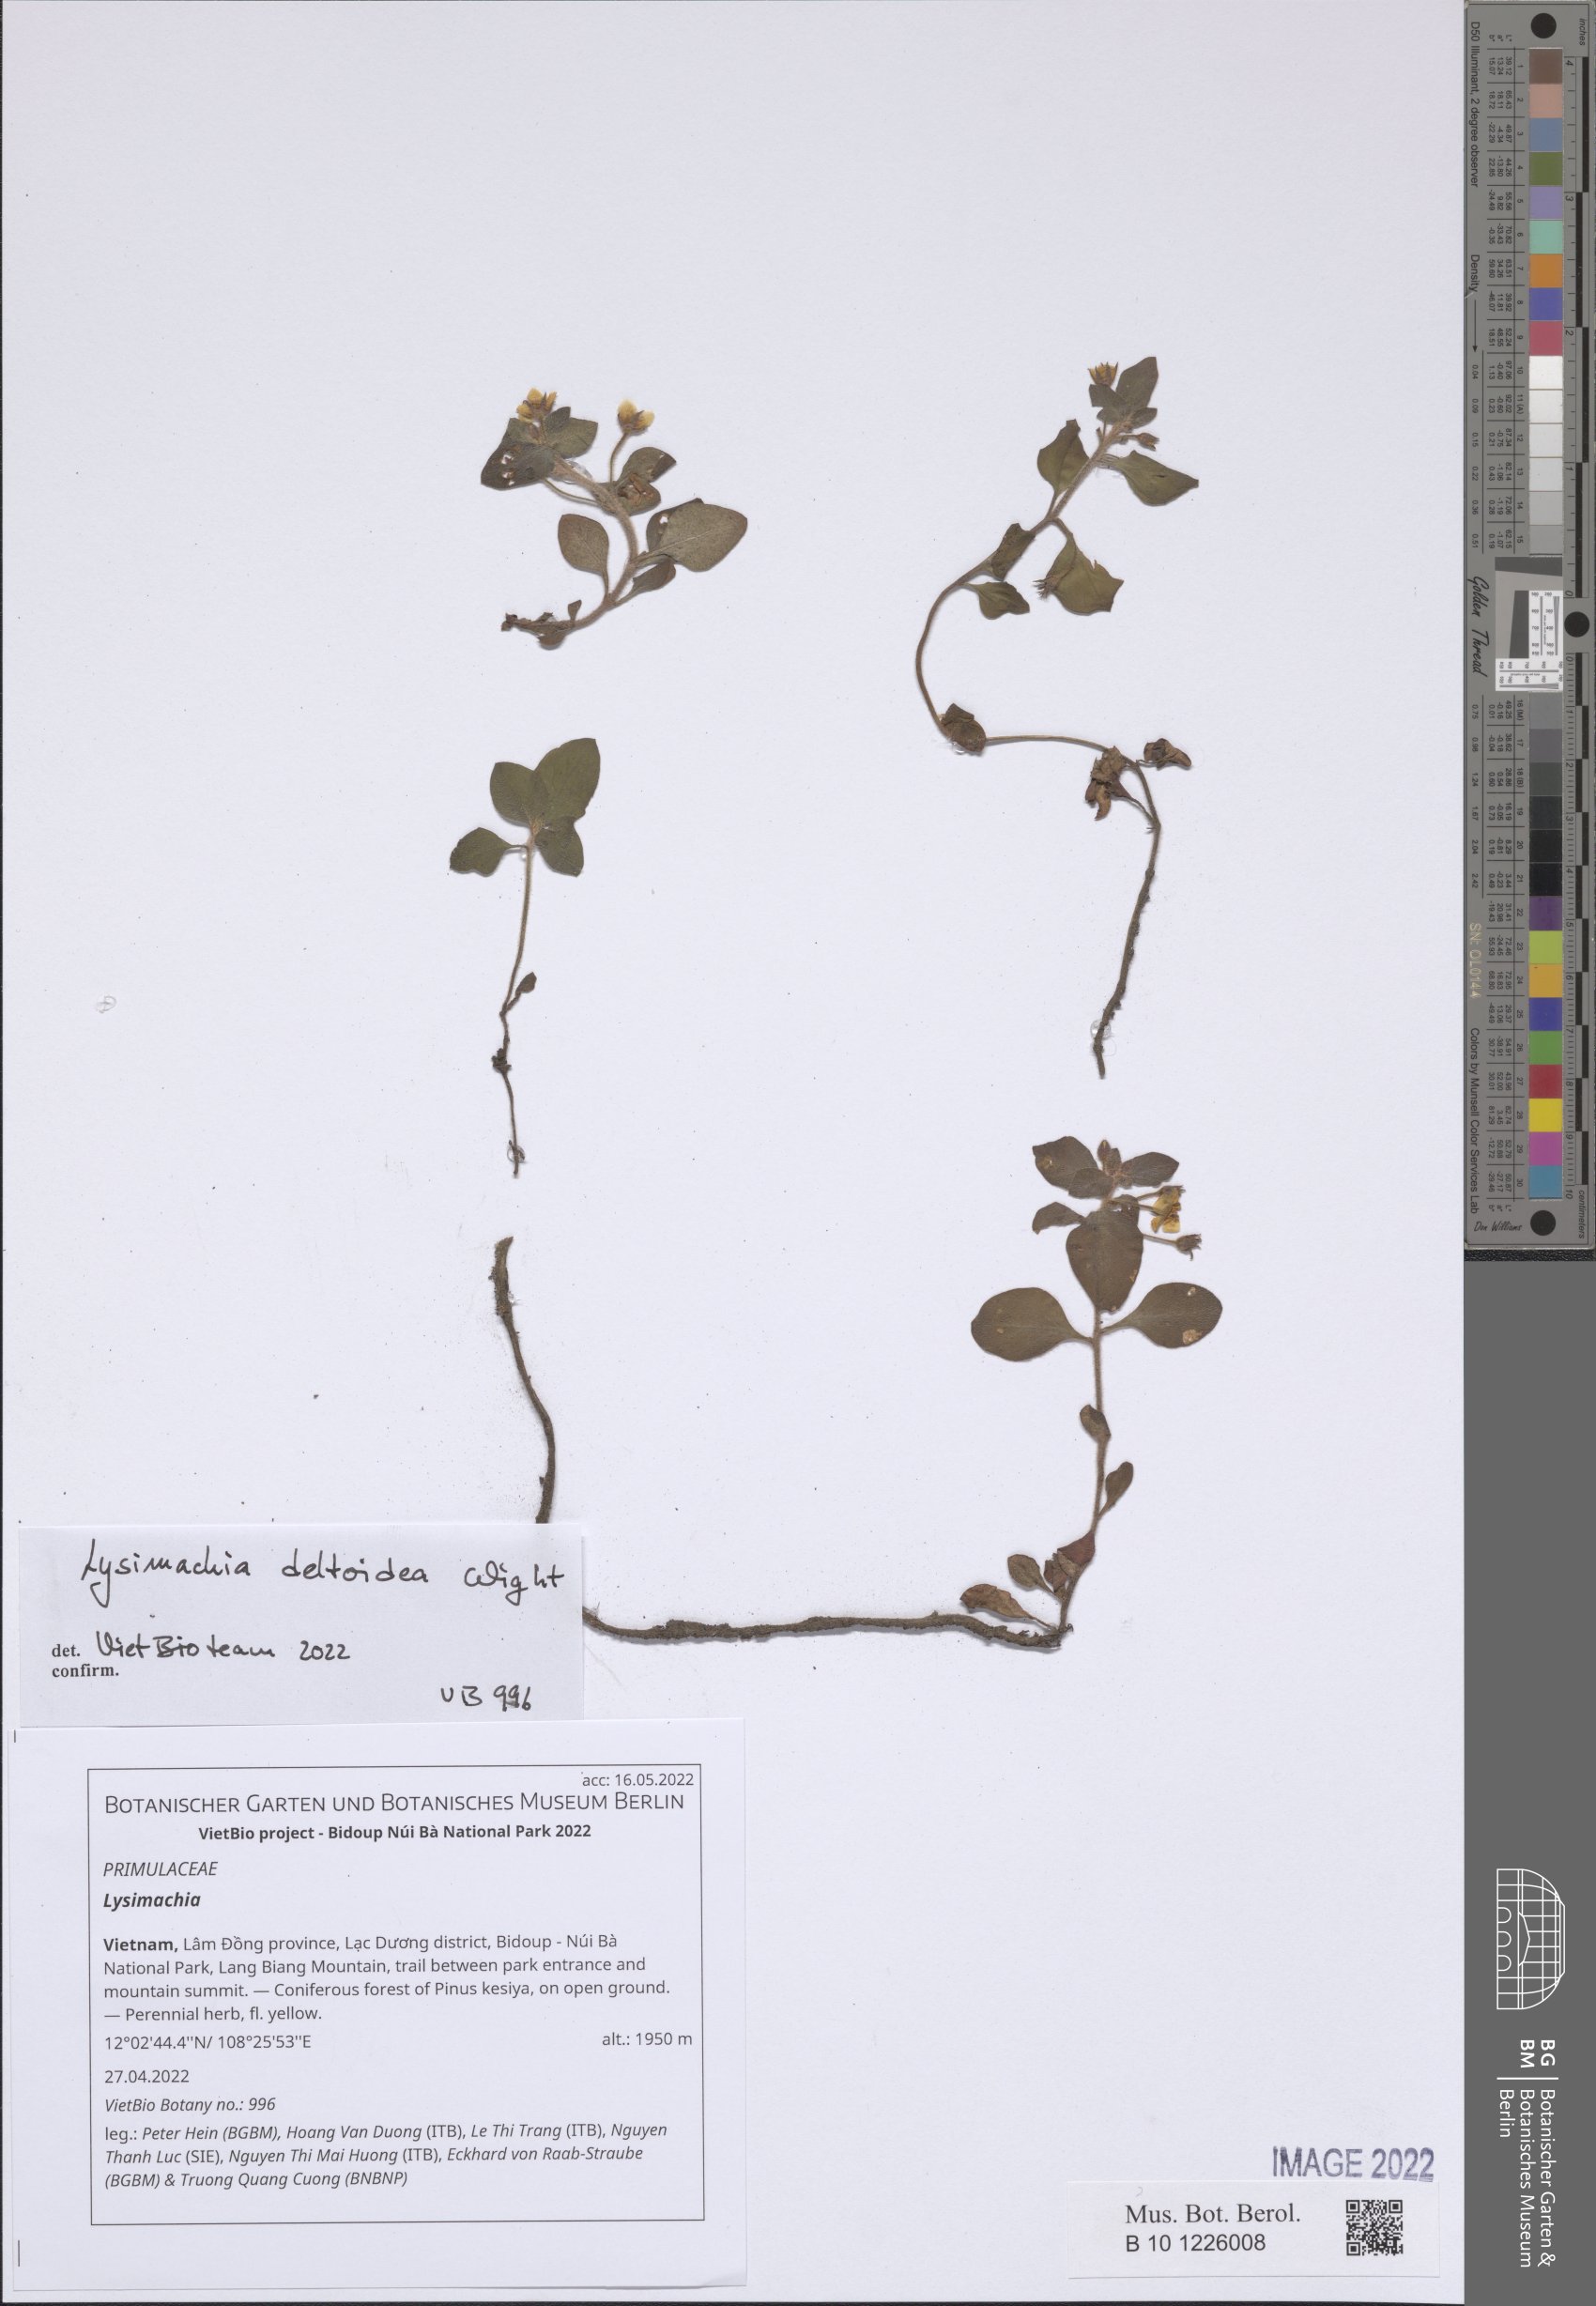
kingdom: Plantae
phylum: Tracheophyta
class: Magnoliopsida
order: Ericales
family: Primulaceae
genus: Lysimachia
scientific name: Lysimachia
